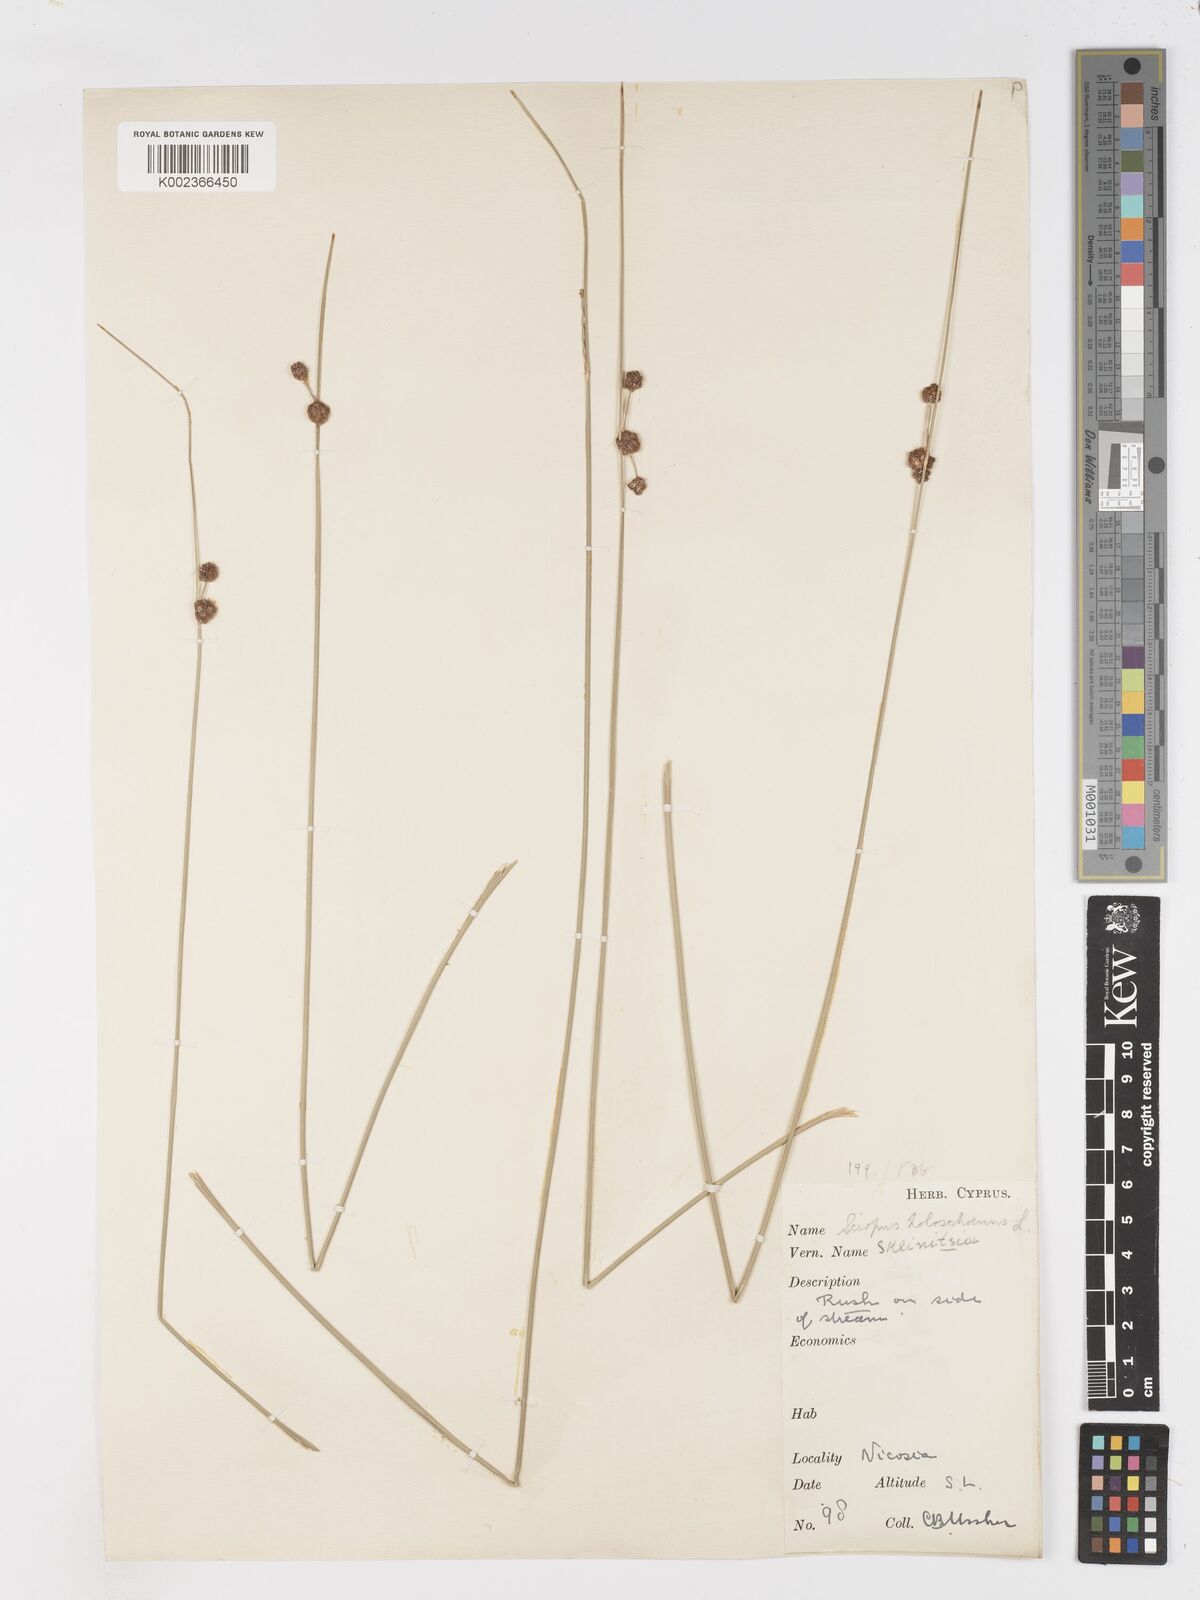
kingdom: Plantae
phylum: Tracheophyta
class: Liliopsida
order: Poales
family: Cyperaceae
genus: Scirpoides
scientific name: Scirpoides holoschoenus
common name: Round-headed club-rush
